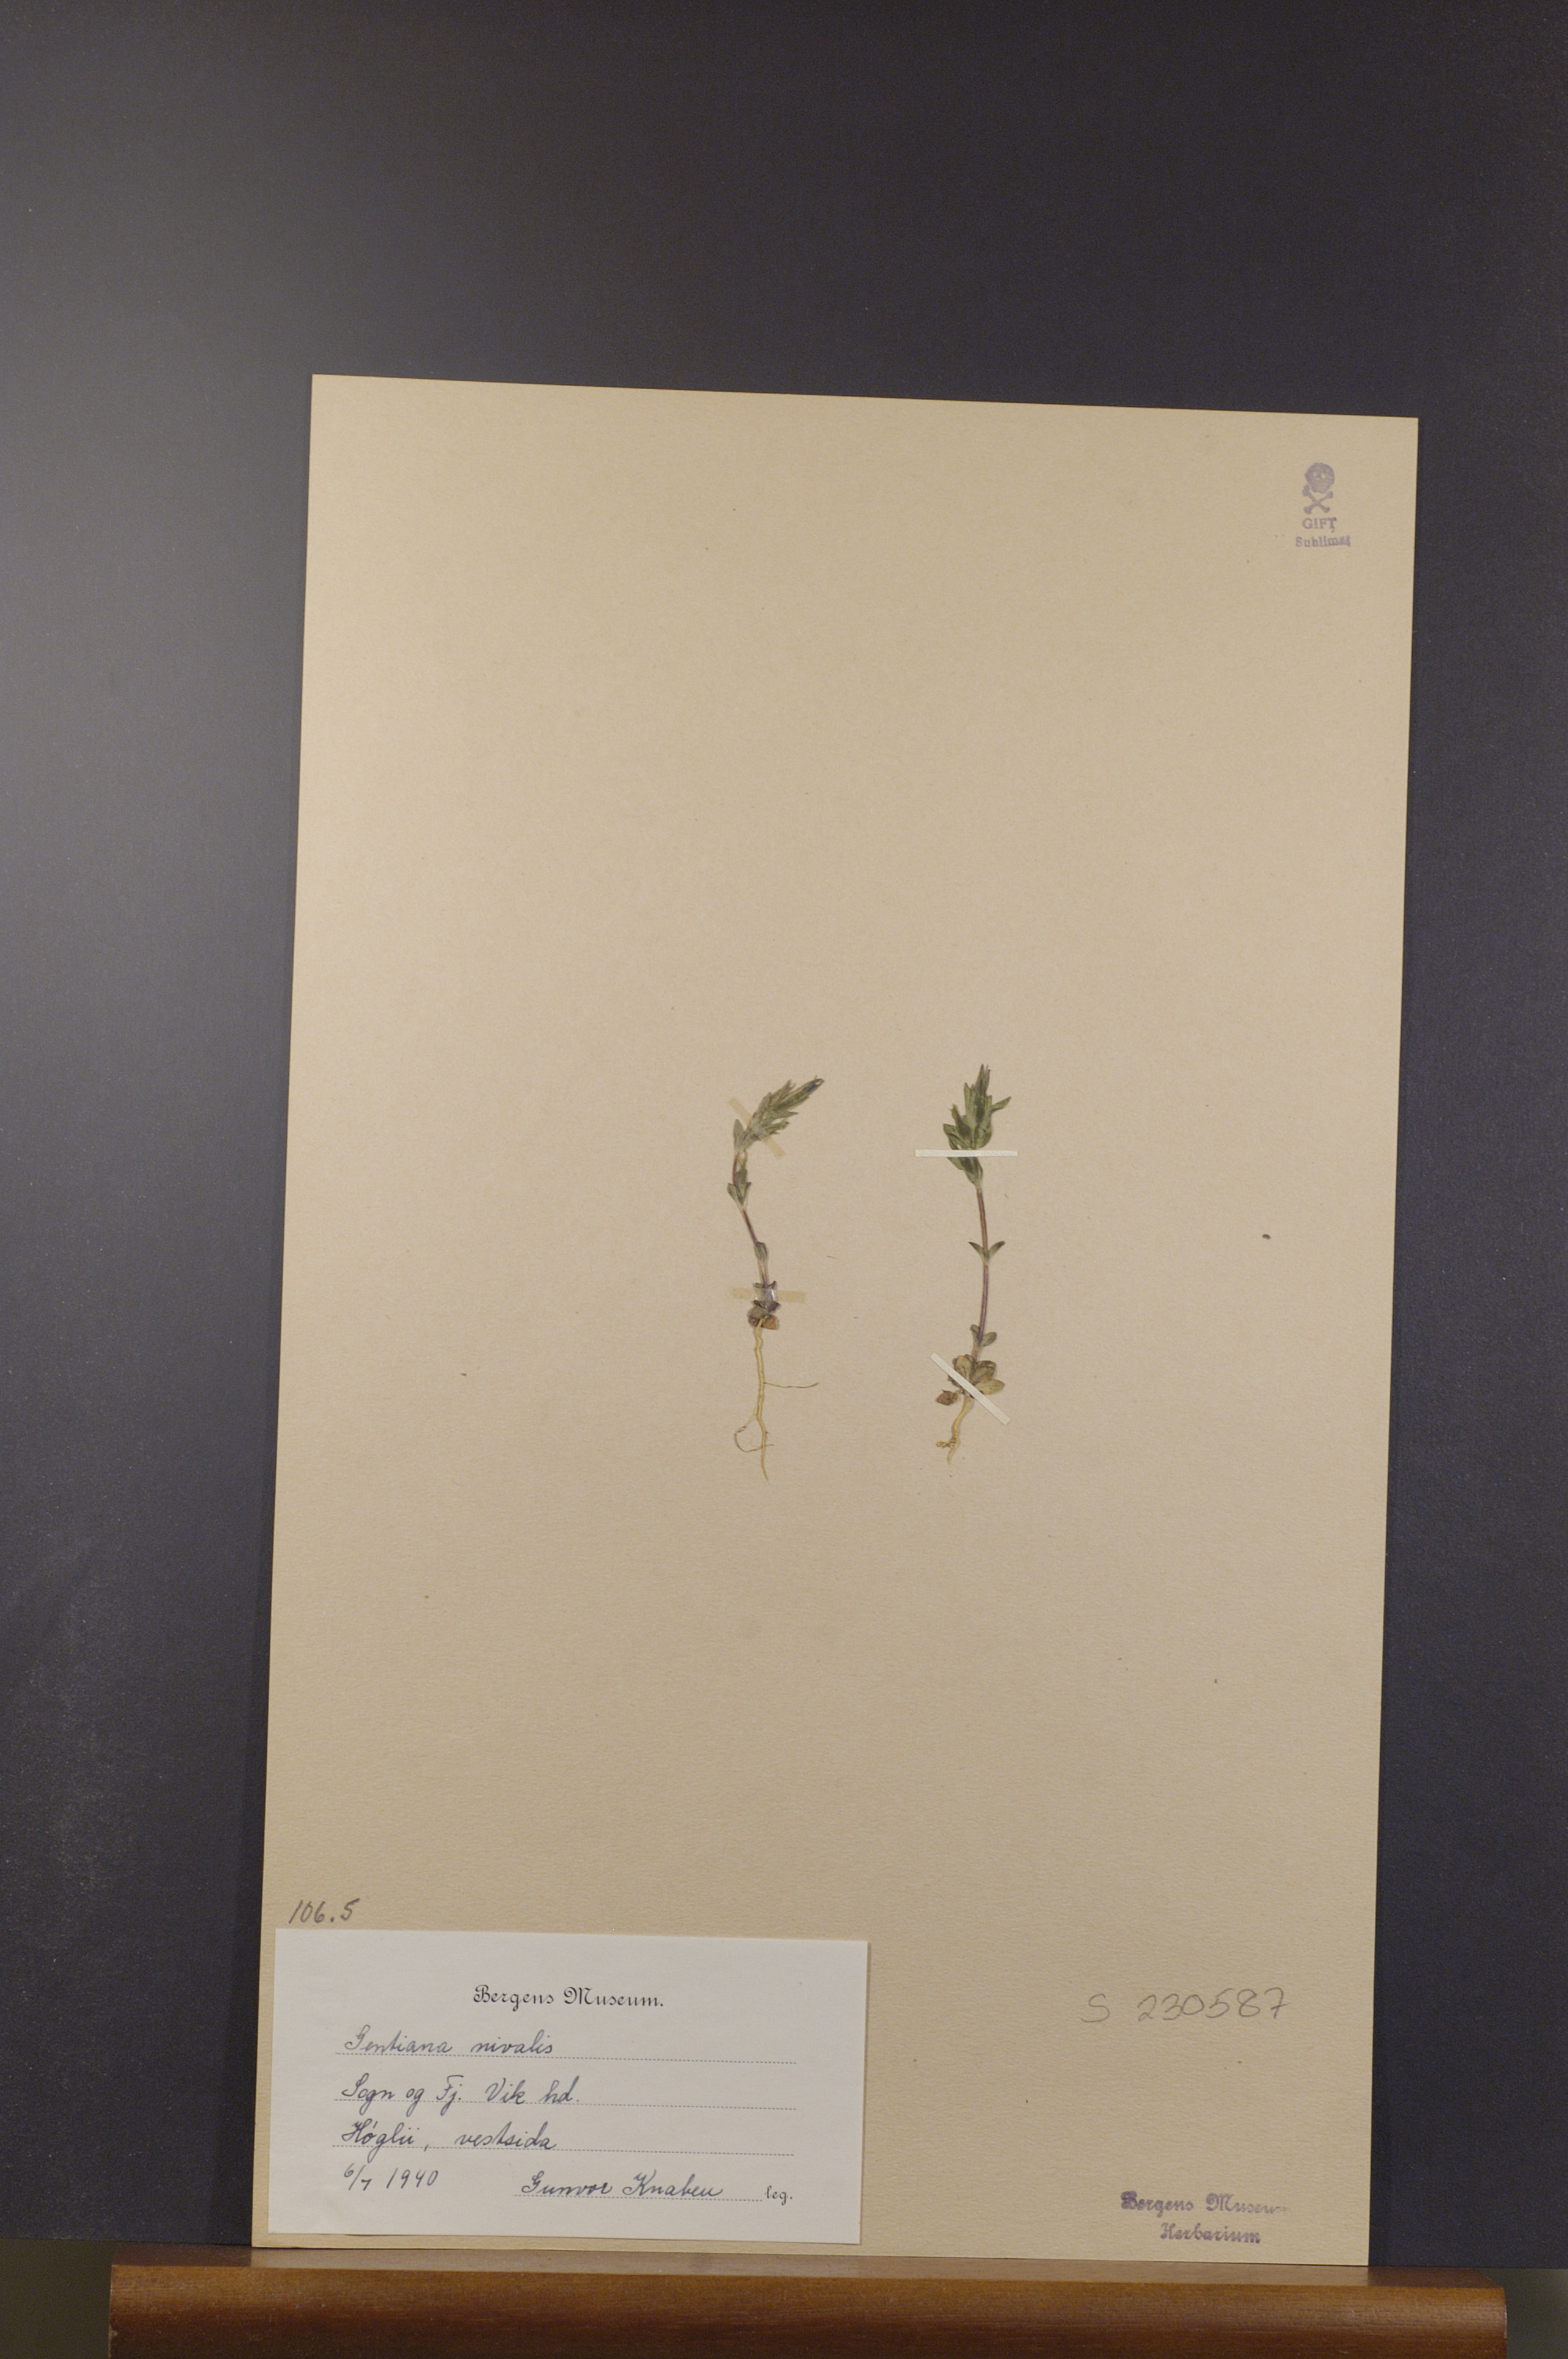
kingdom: Plantae
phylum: Tracheophyta
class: Magnoliopsida
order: Gentianales
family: Gentianaceae
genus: Gentiana
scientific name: Gentiana nivalis
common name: Alpine gentian
